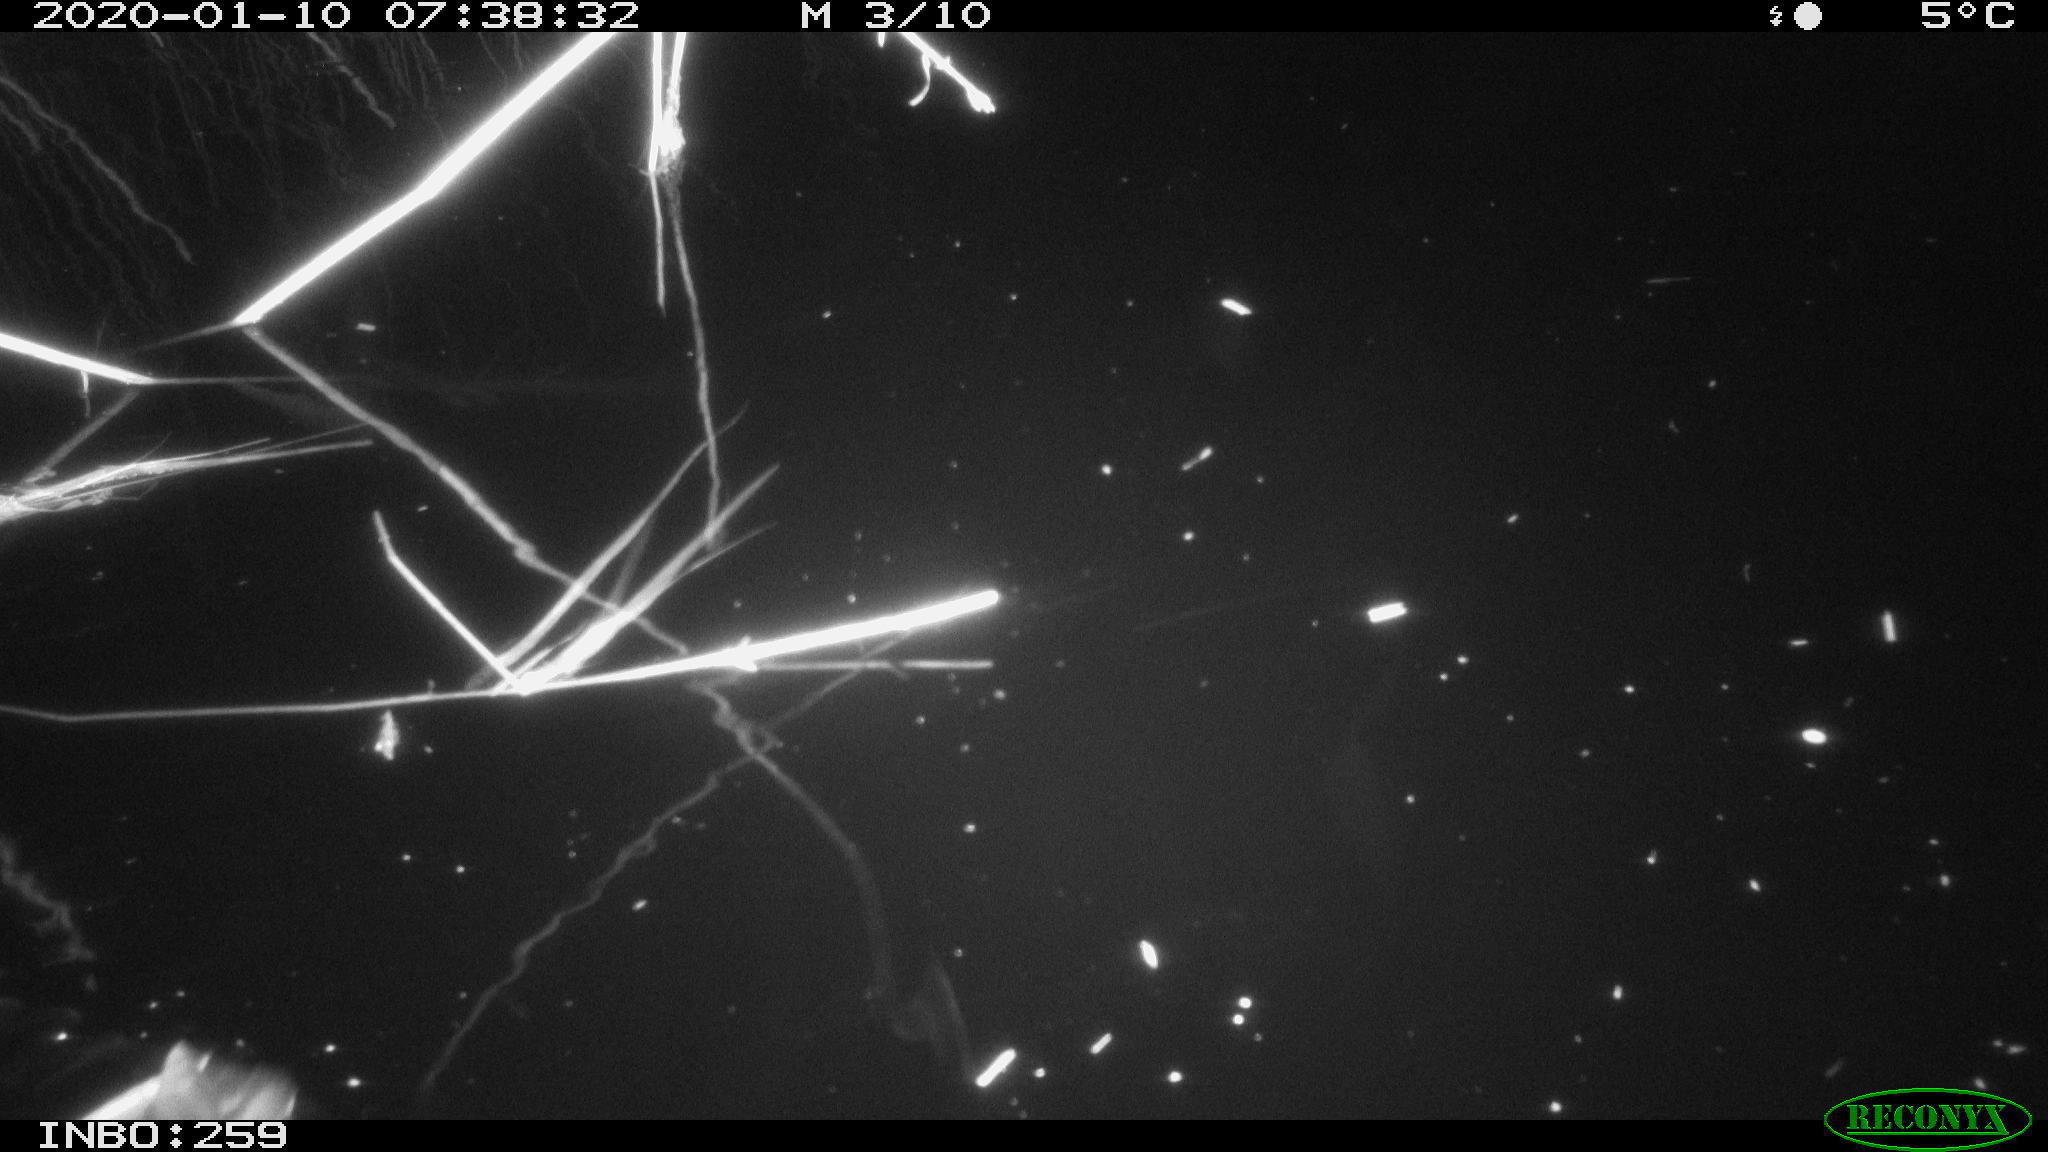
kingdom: Animalia
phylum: Chordata
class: Aves
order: Gruiformes
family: Rallidae
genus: Gallinula
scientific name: Gallinula chloropus
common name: Common moorhen
